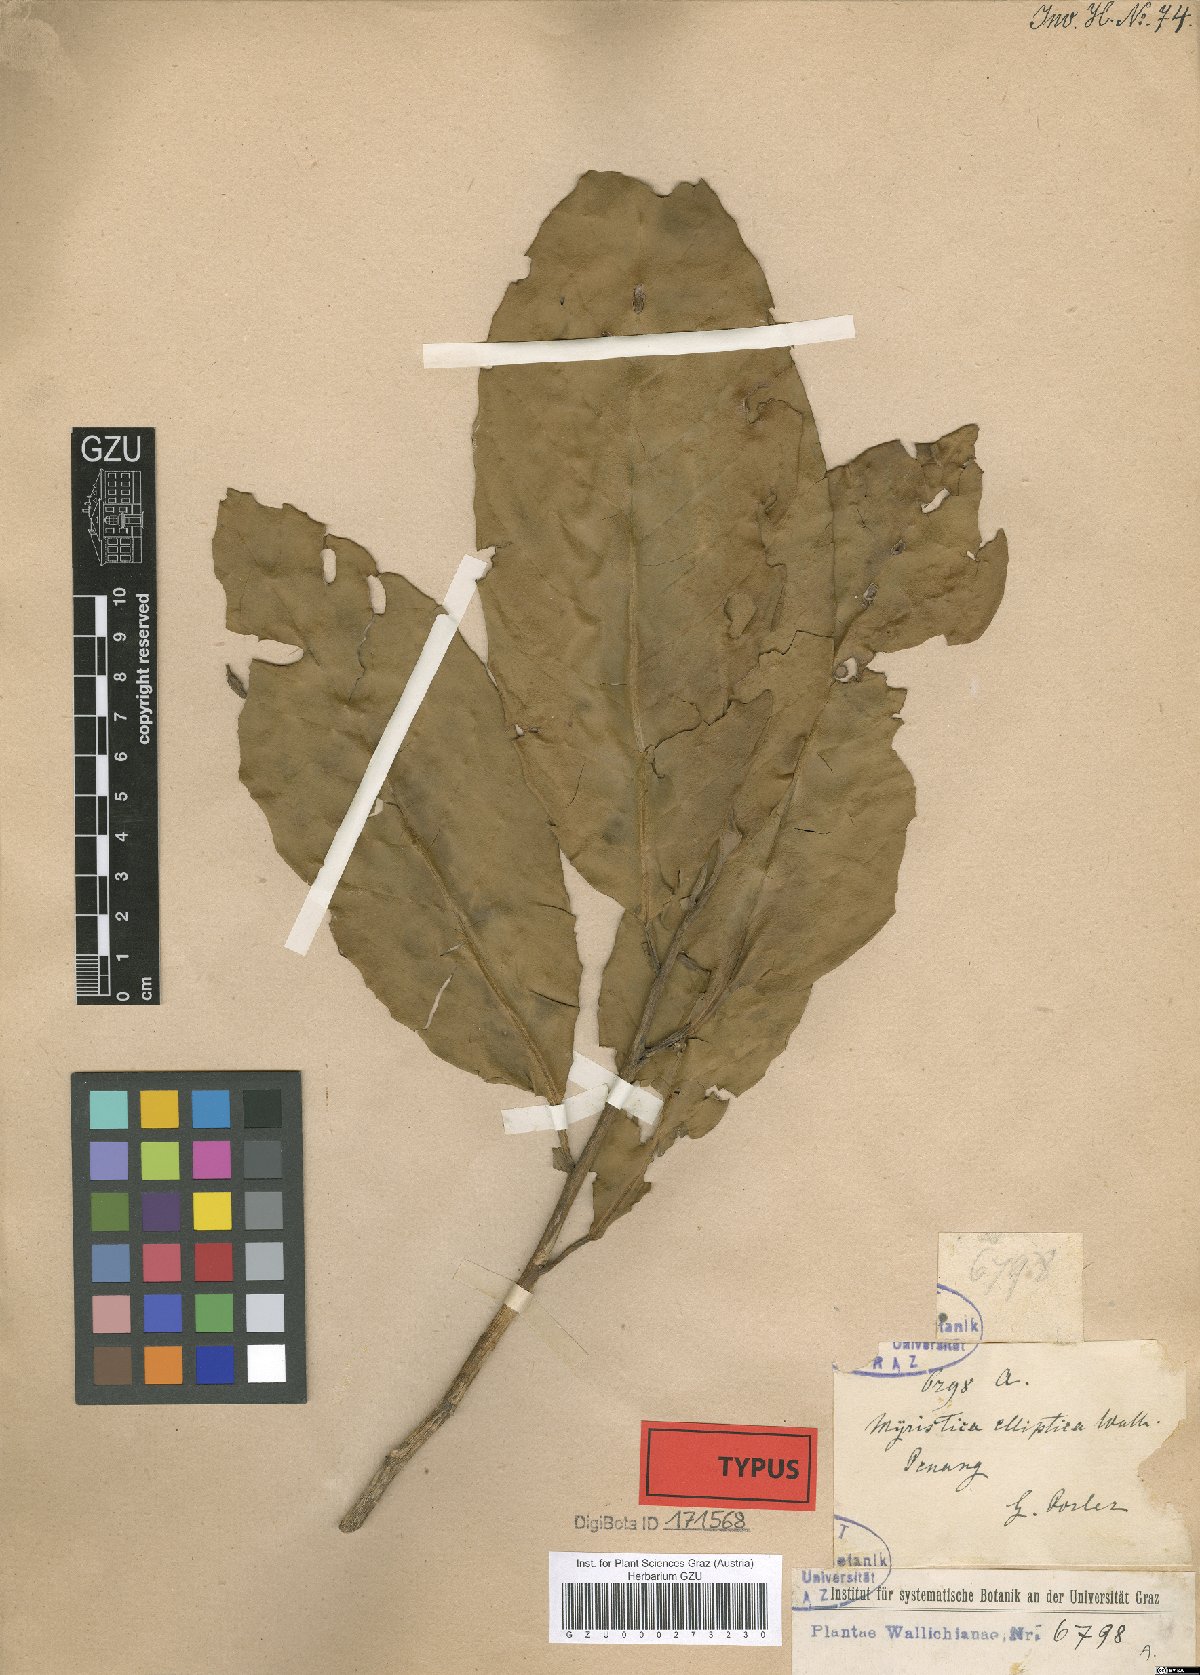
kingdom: Plantae
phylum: Tracheophyta
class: Magnoliopsida
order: Magnoliales
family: Myristicaceae
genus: Myristica
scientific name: Myristica elliptica
